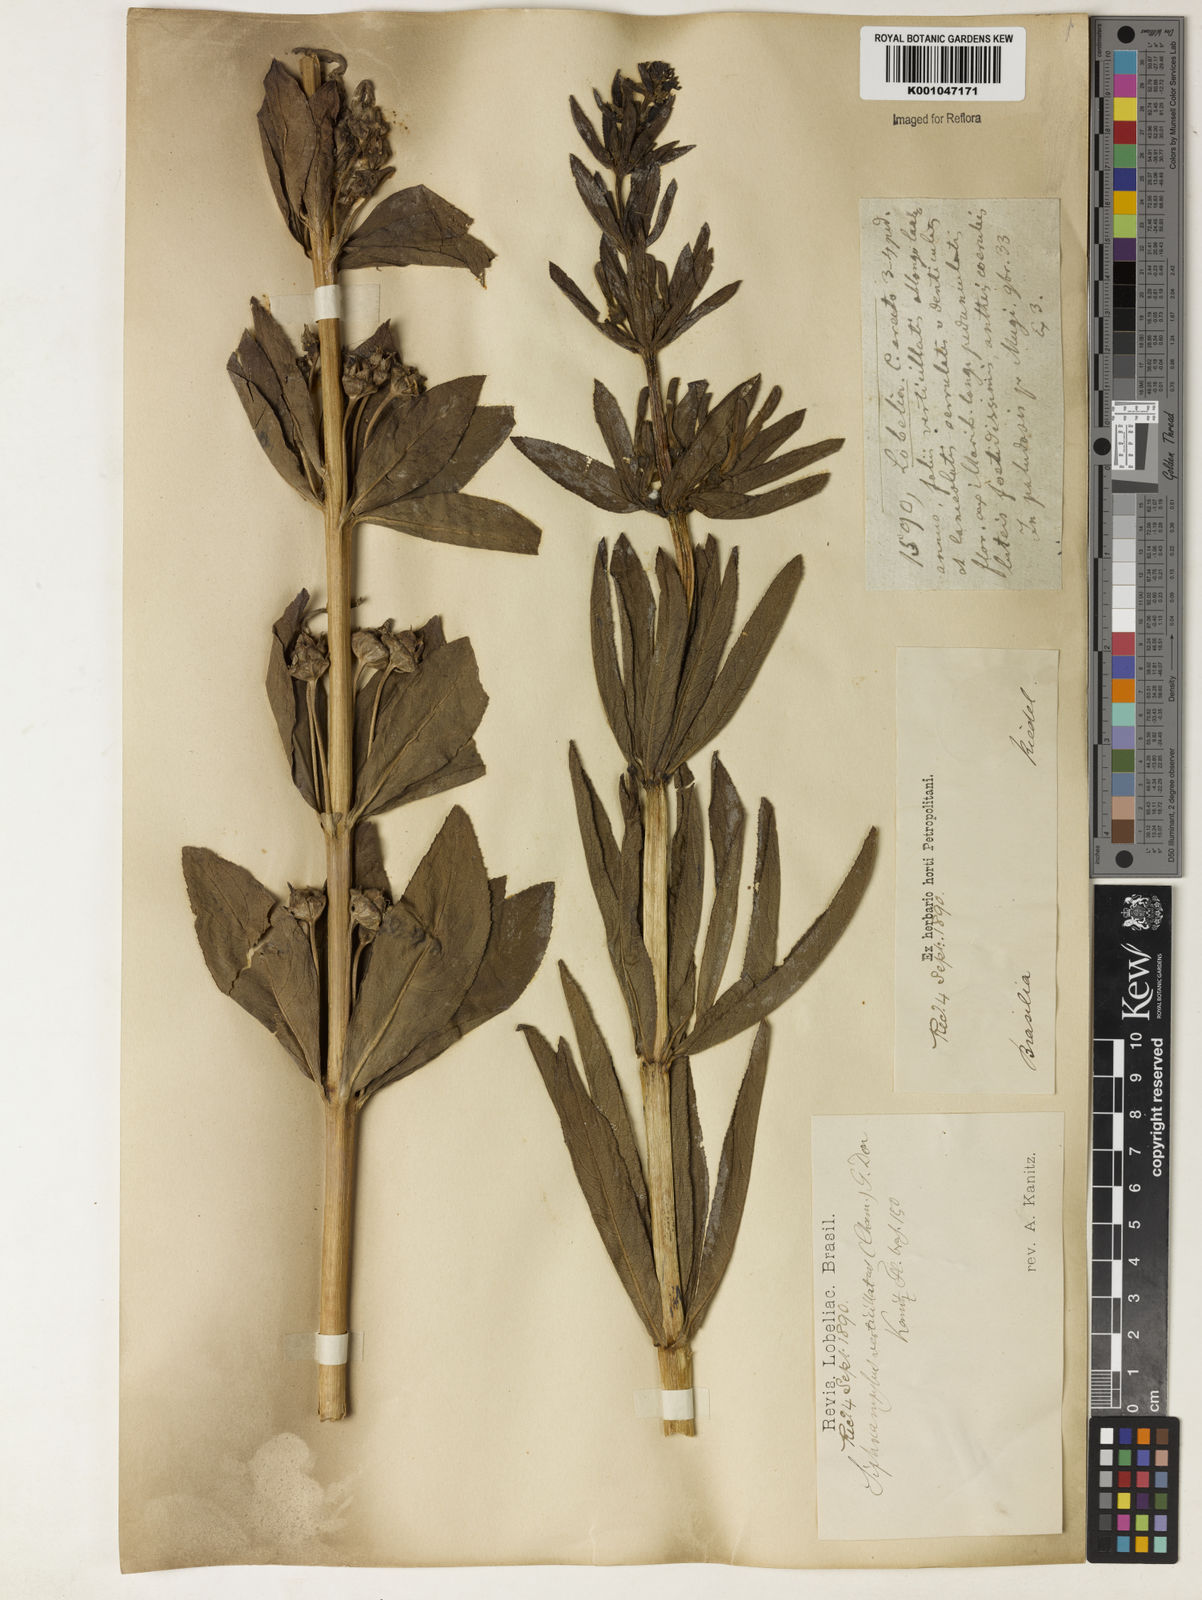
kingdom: Plantae
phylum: Tracheophyta
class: Magnoliopsida
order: Asterales
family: Campanulaceae
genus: Siphocampylus
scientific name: Siphocampylus verticillatus
